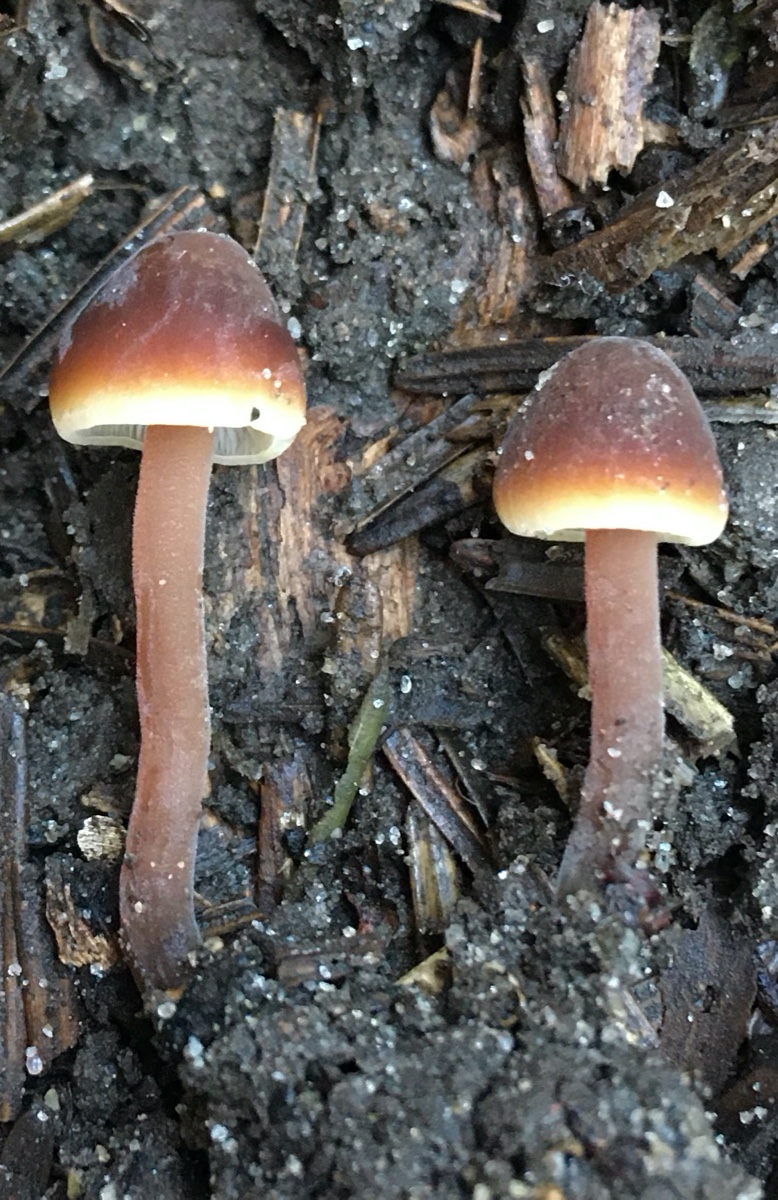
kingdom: Fungi
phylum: Basidiomycota
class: Agaricomycetes
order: Agaricales
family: Macrocystidiaceae
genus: Macrocystidia
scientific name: Macrocystidia cucumis
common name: agurkehat
